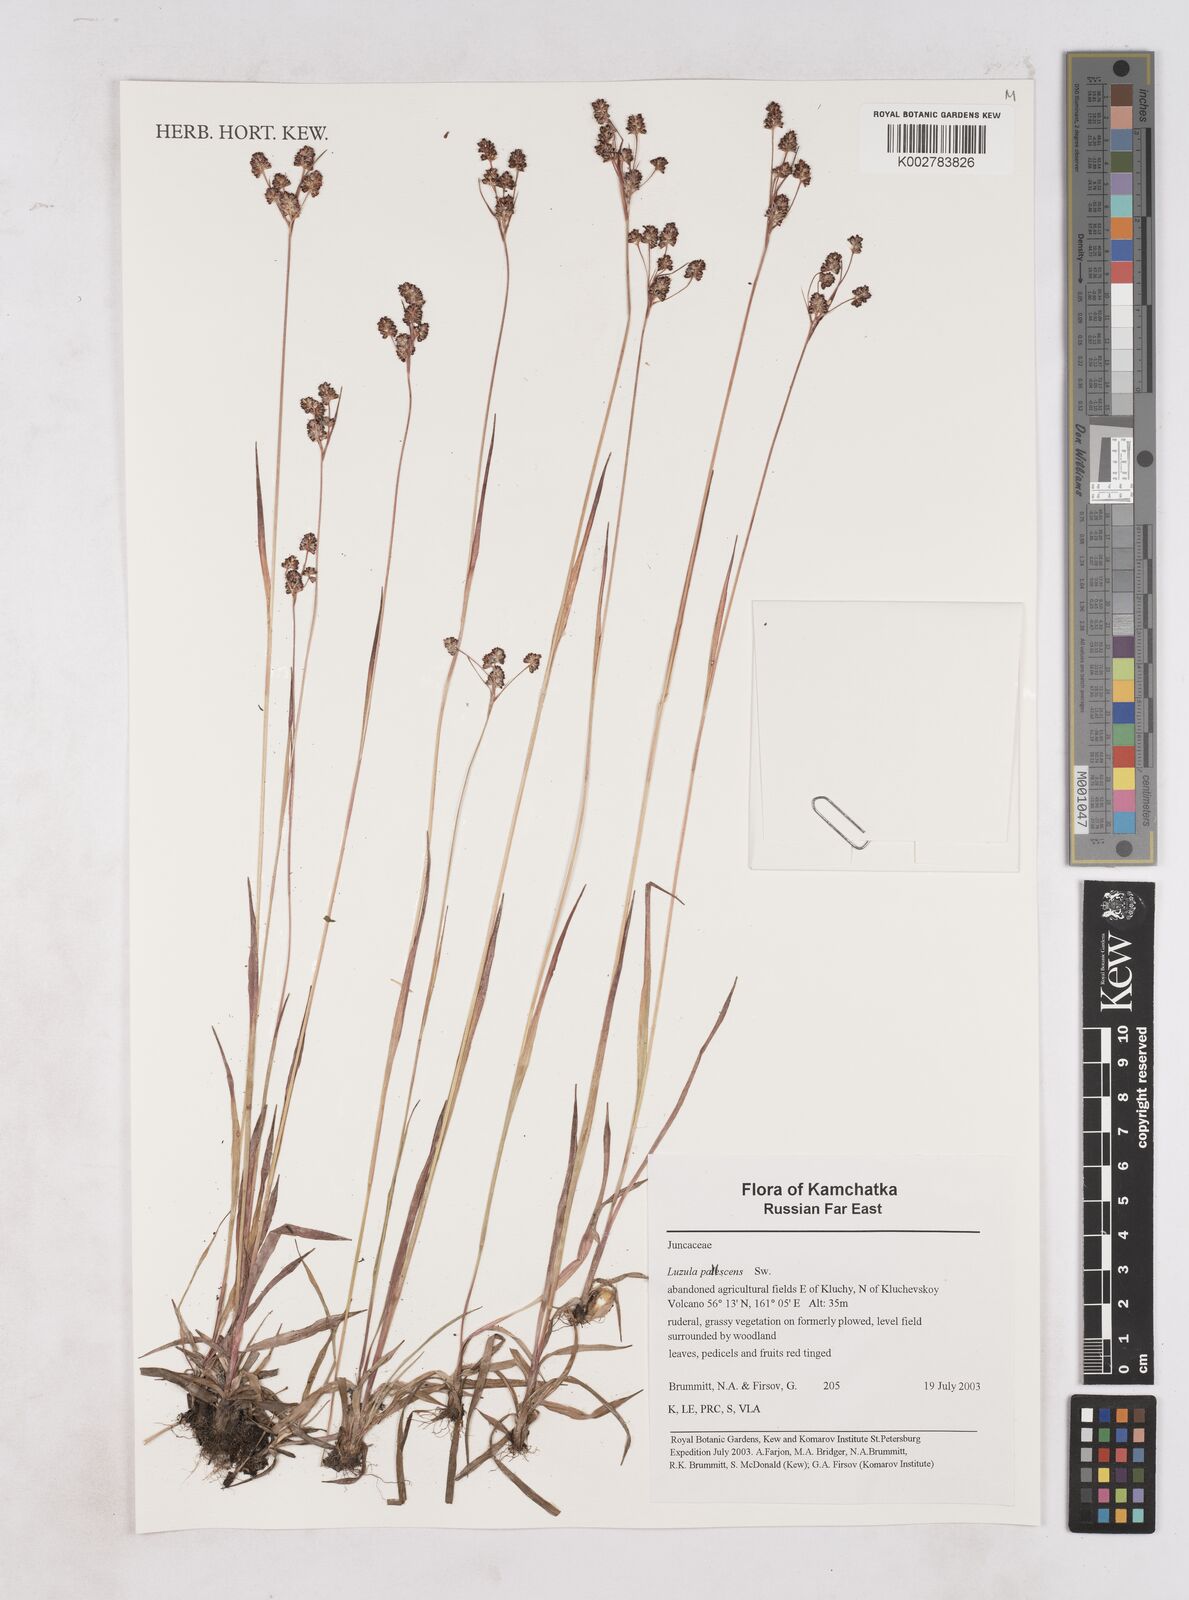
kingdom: Plantae
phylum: Tracheophyta
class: Liliopsida
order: Poales
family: Juncaceae
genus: Luzula
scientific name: Luzula pallescens
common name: Fen wood-rush
